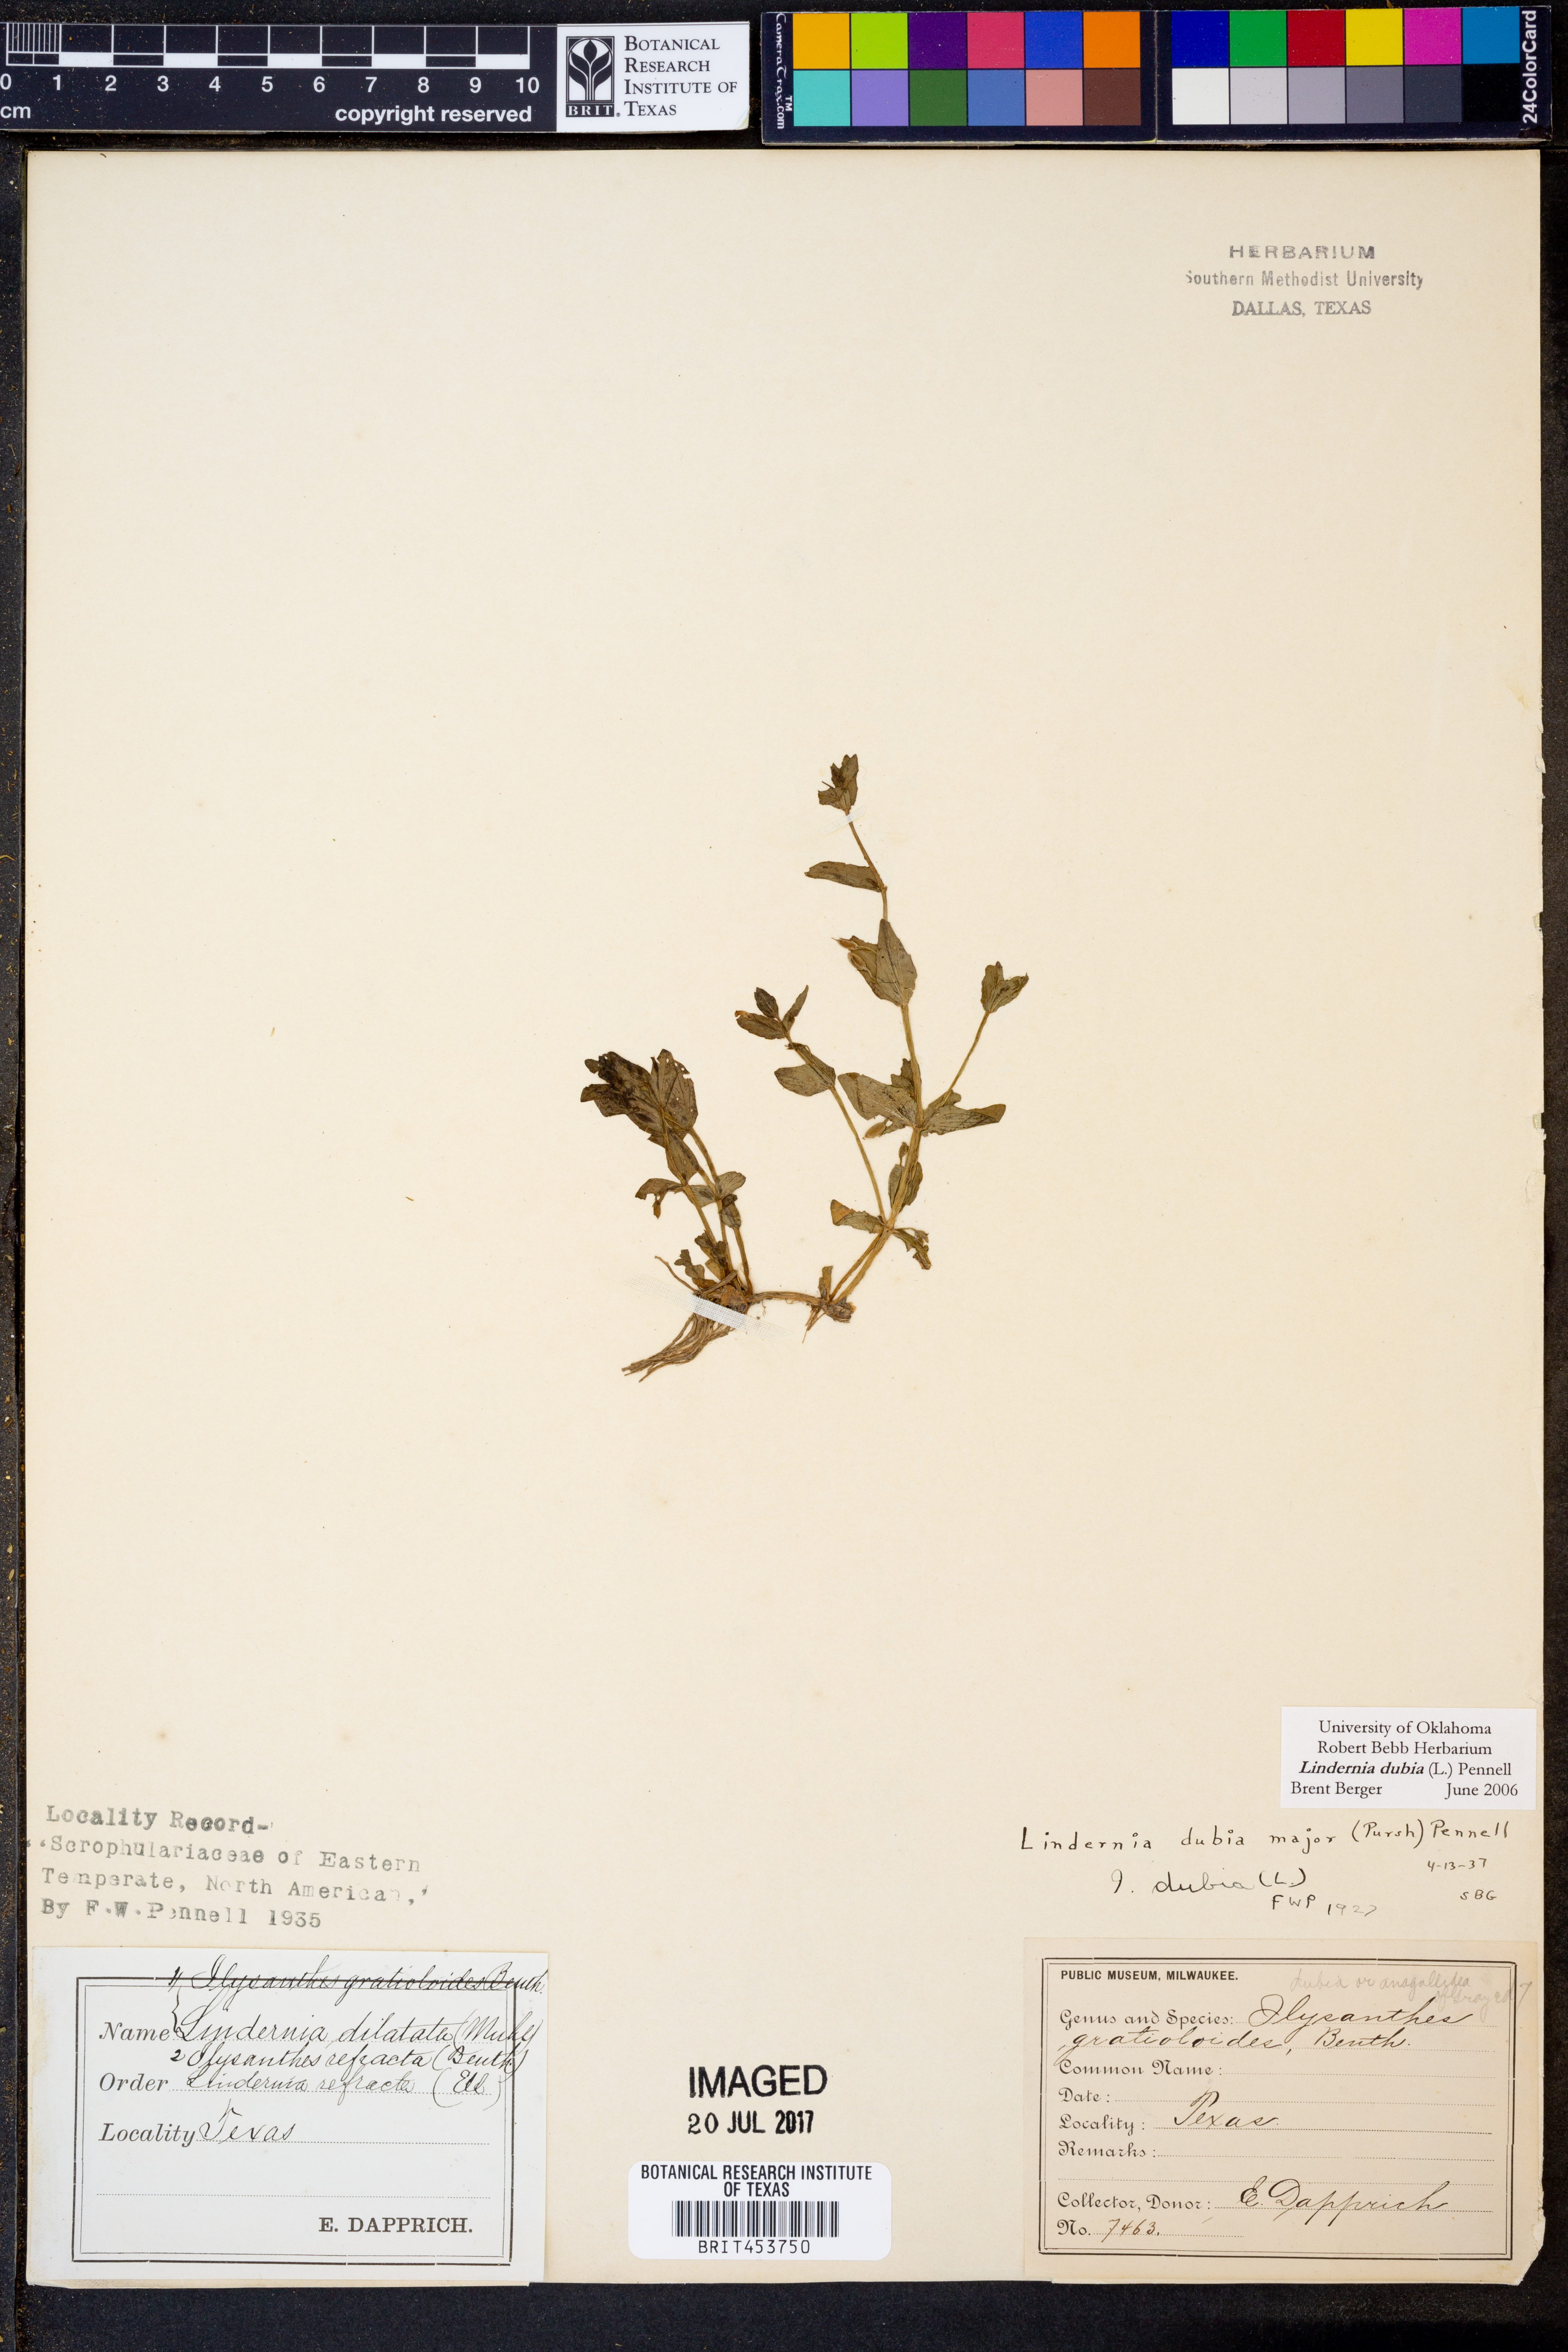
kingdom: Plantae
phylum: Tracheophyta
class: Magnoliopsida
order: Lamiales
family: Linderniaceae
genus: Lindernia
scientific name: Lindernia dubia
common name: Annual false pimpernel
